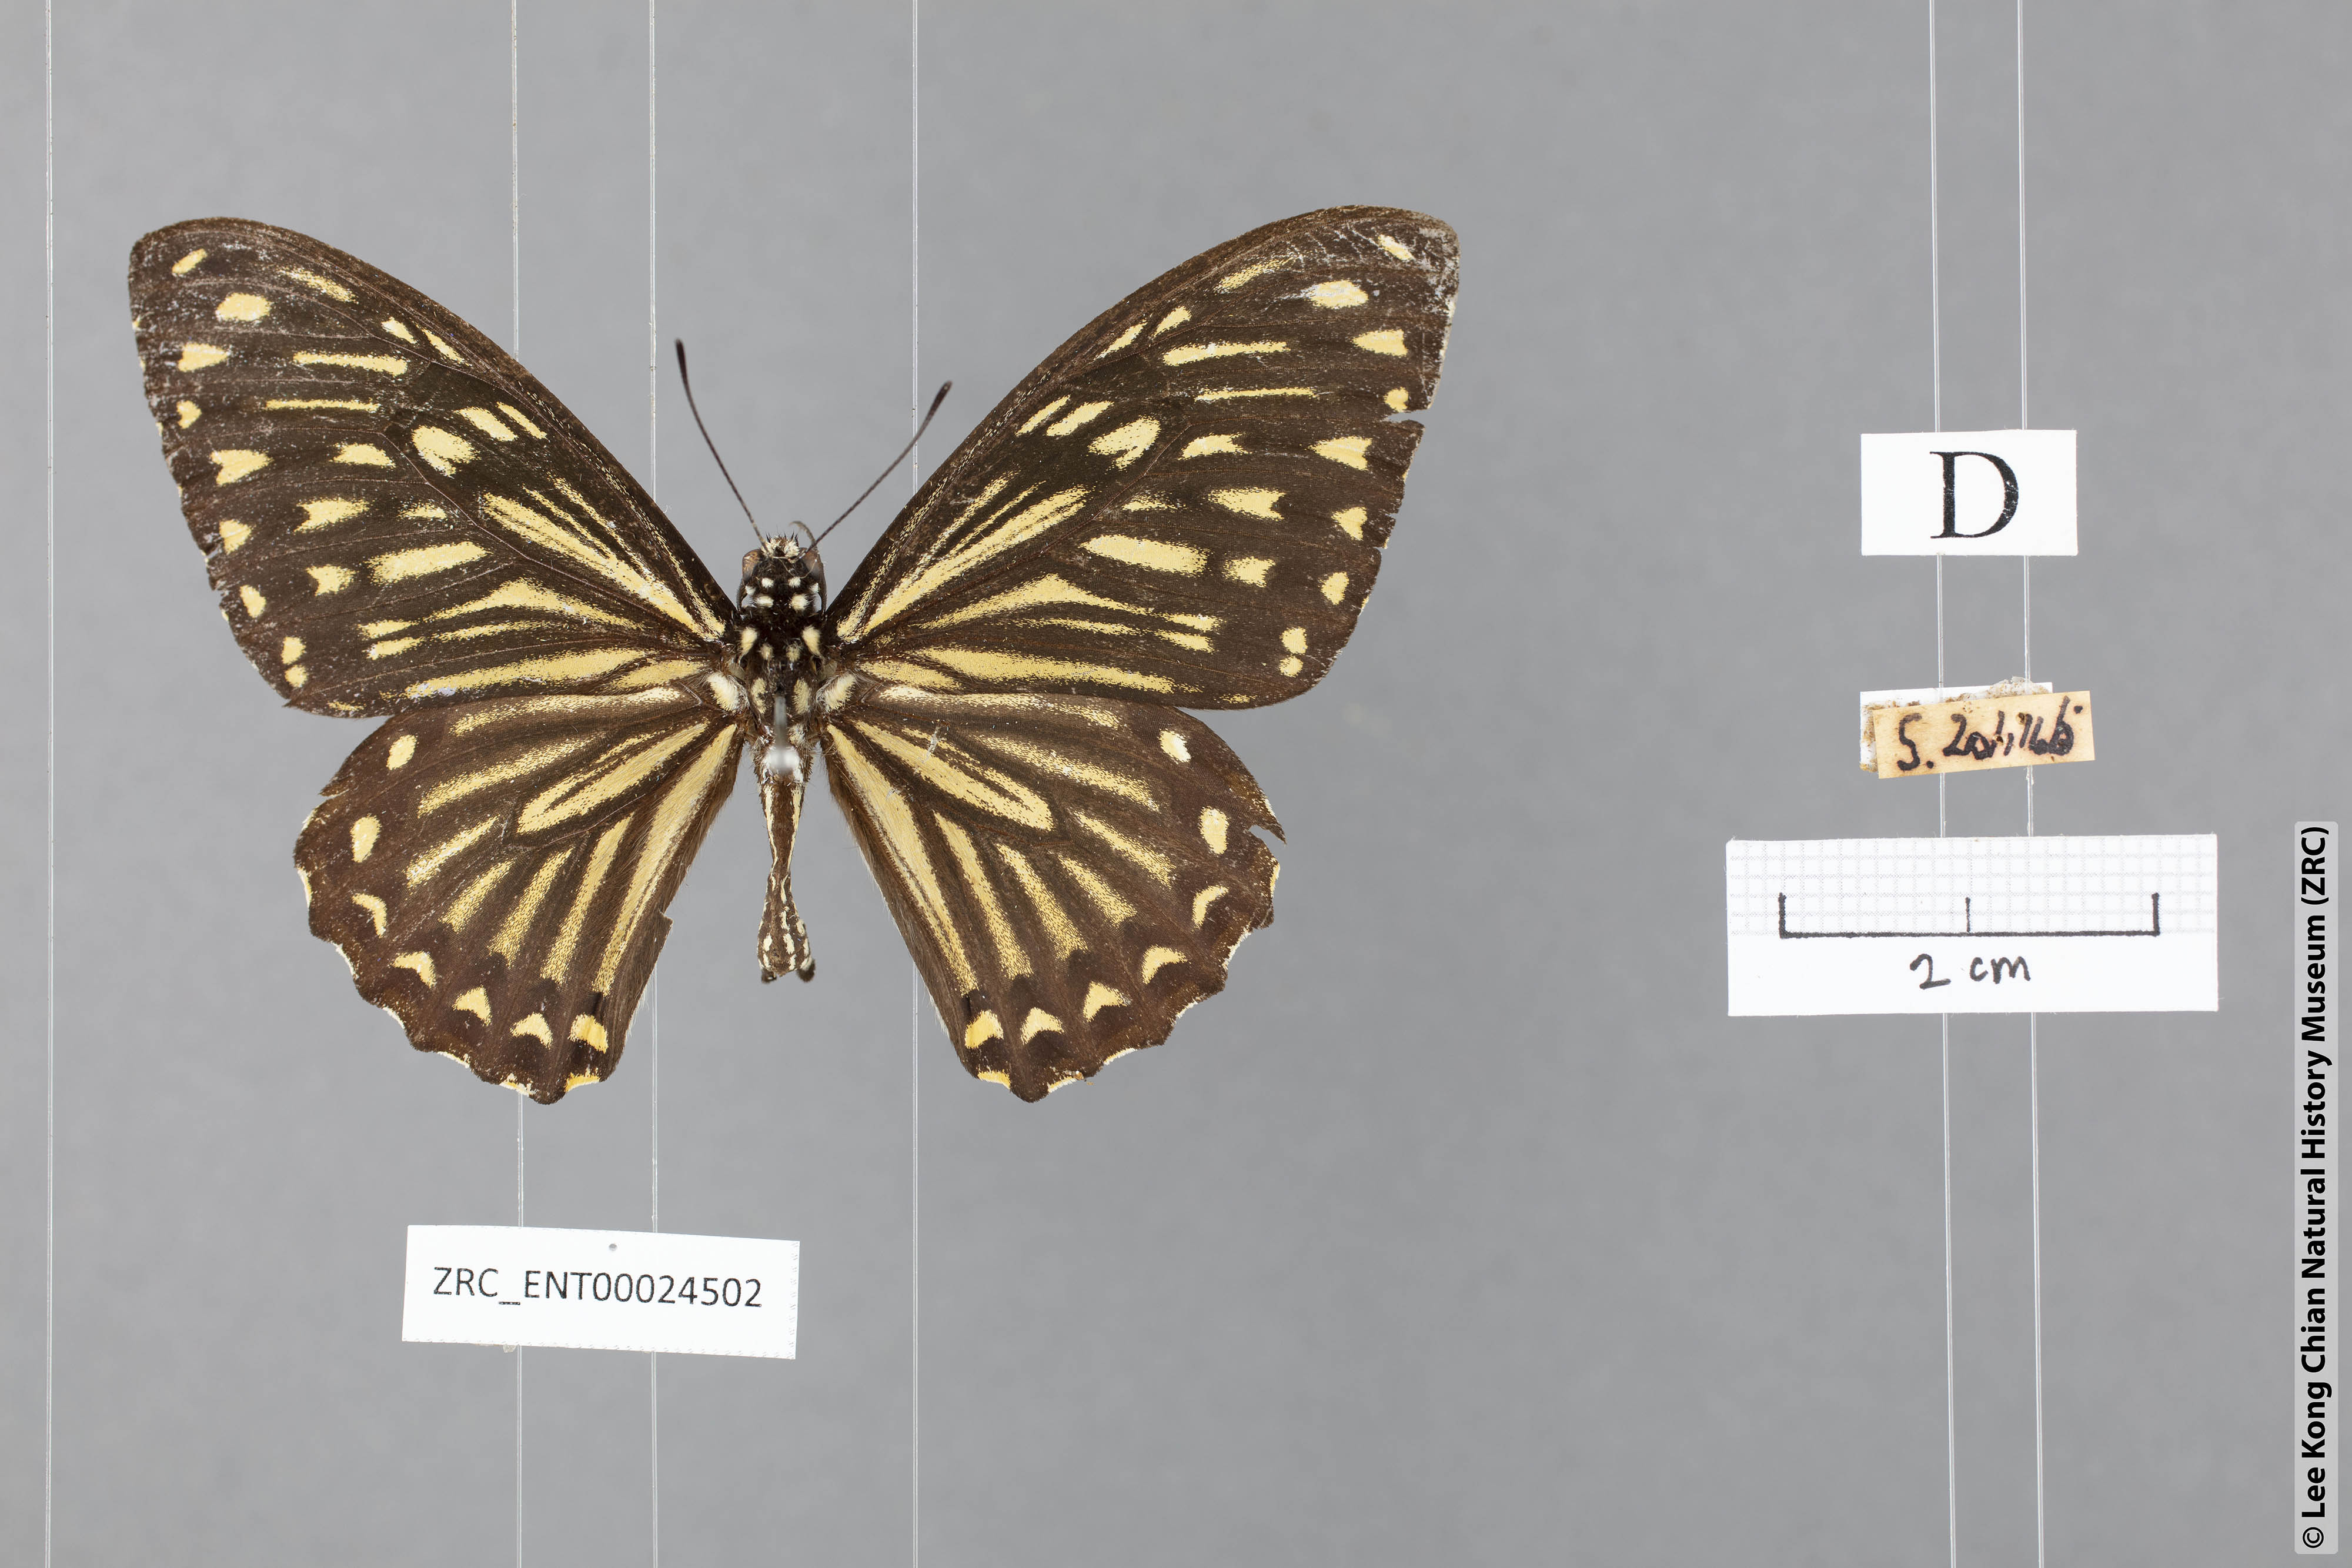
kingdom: Animalia
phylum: Arthropoda
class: Insecta
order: Lepidoptera
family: Papilionidae
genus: Chilasa
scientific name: Chilasa clytia
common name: Common mime
